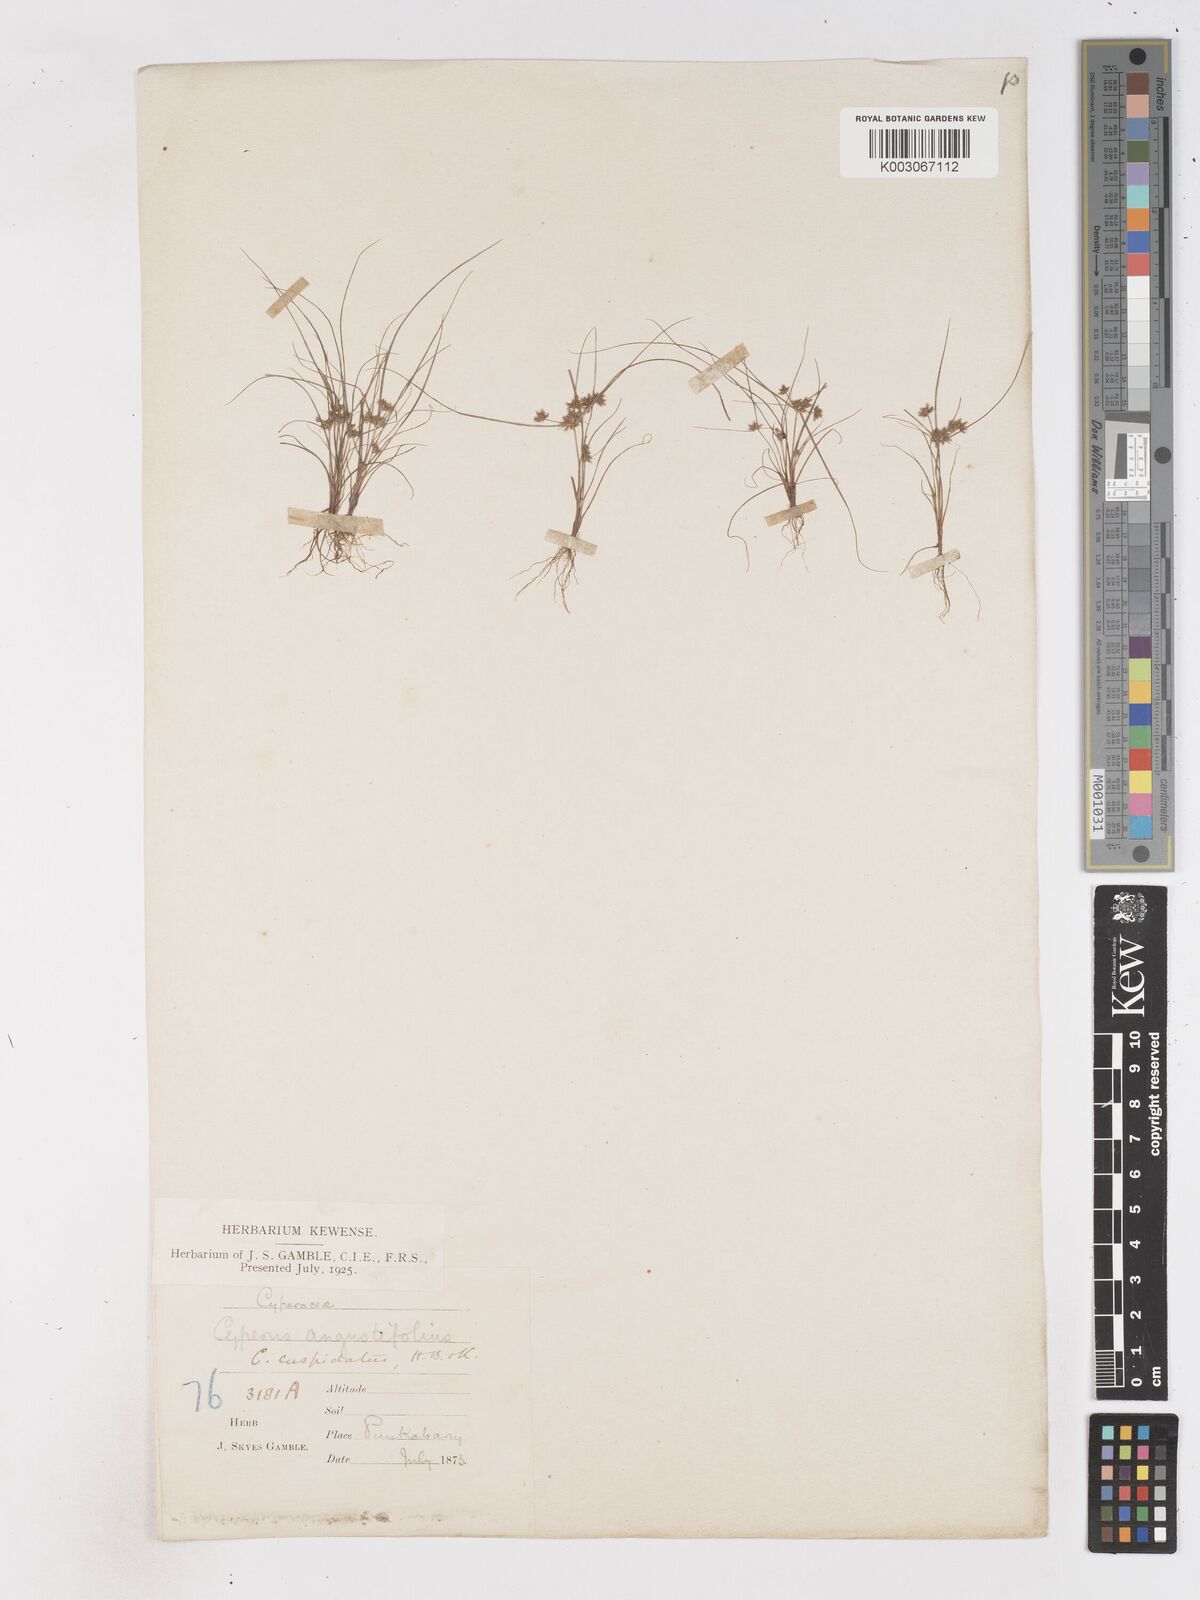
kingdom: Plantae
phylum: Tracheophyta
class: Liliopsida
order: Poales
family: Cyperaceae
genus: Cyperus
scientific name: Cyperus cuspidatus
